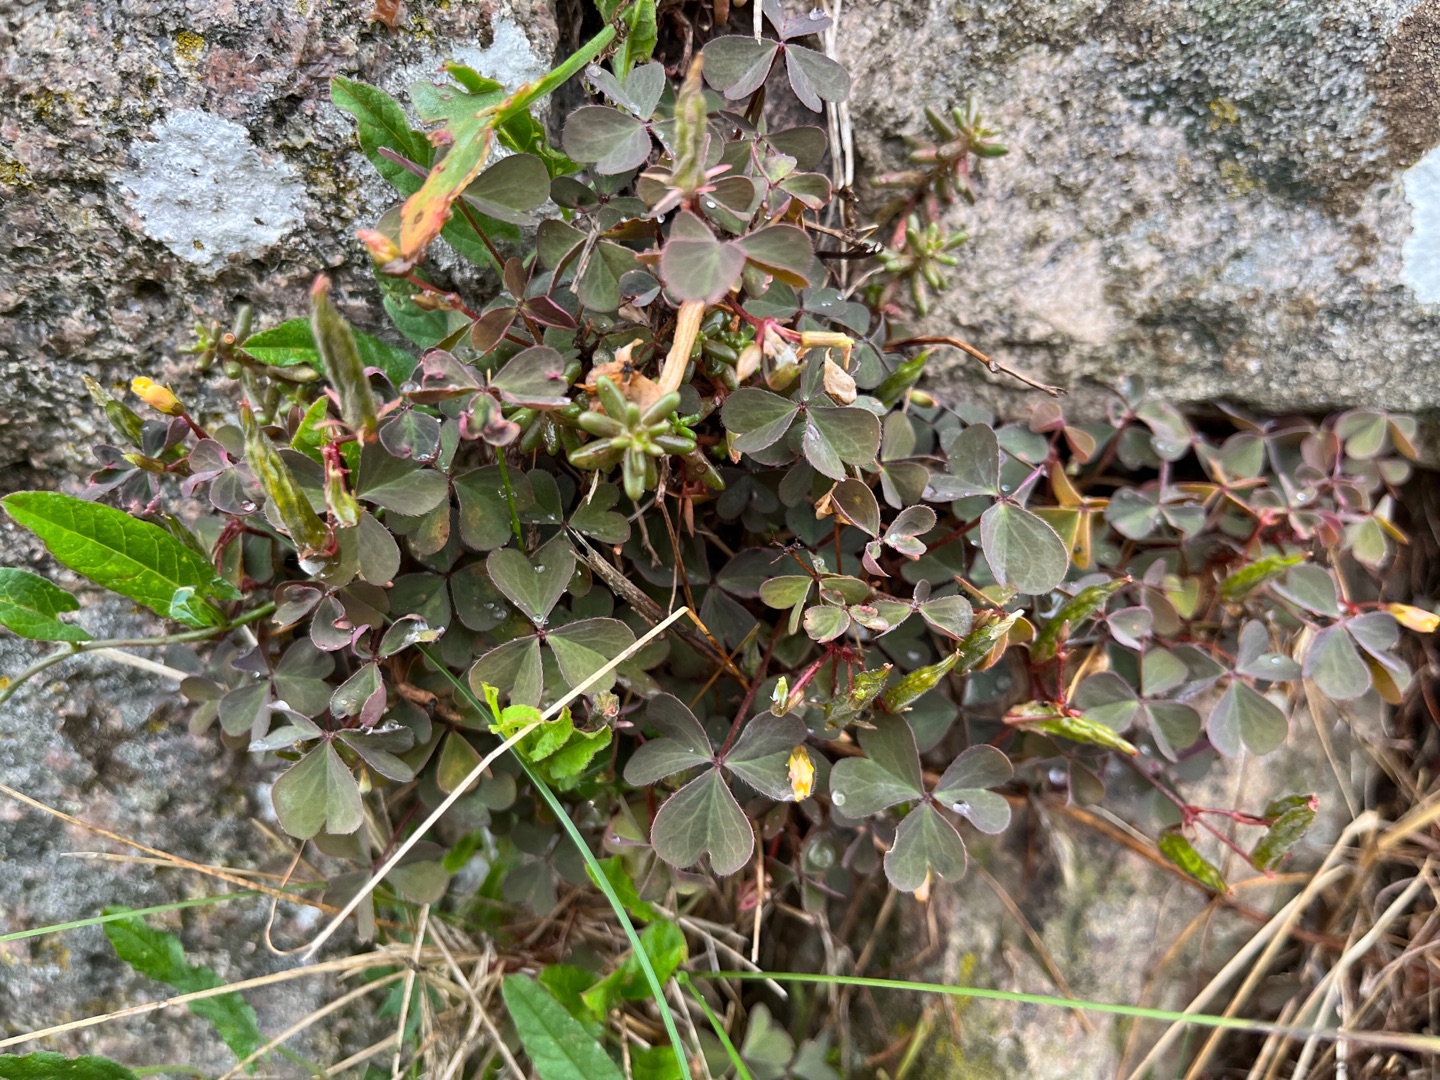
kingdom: Plantae
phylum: Tracheophyta
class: Magnoliopsida
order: Oxalidales
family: Oxalidaceae
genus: Oxalis
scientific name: Oxalis corniculata
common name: Nedliggende surkløver
